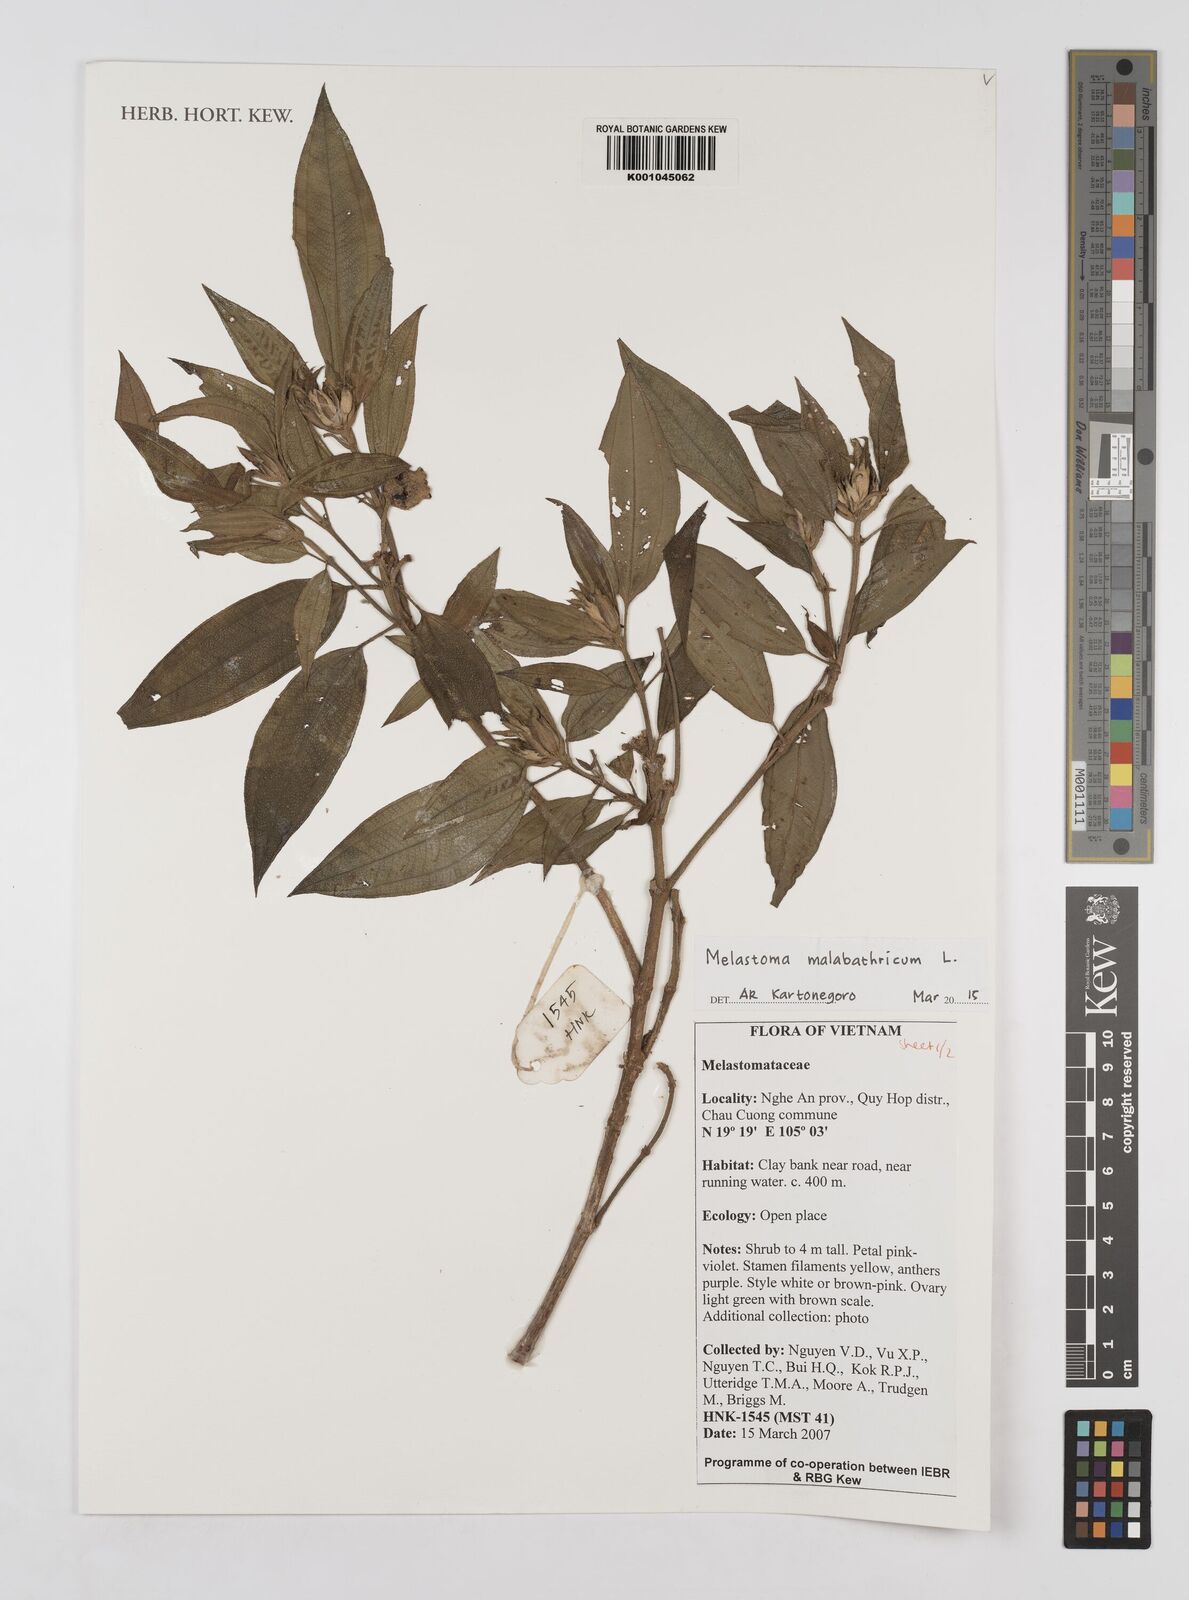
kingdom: Plantae
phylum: Tracheophyta
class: Magnoliopsida
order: Myrtales
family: Melastomataceae
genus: Melastoma
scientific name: Melastoma malabathricum
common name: Indian-rhododendron
